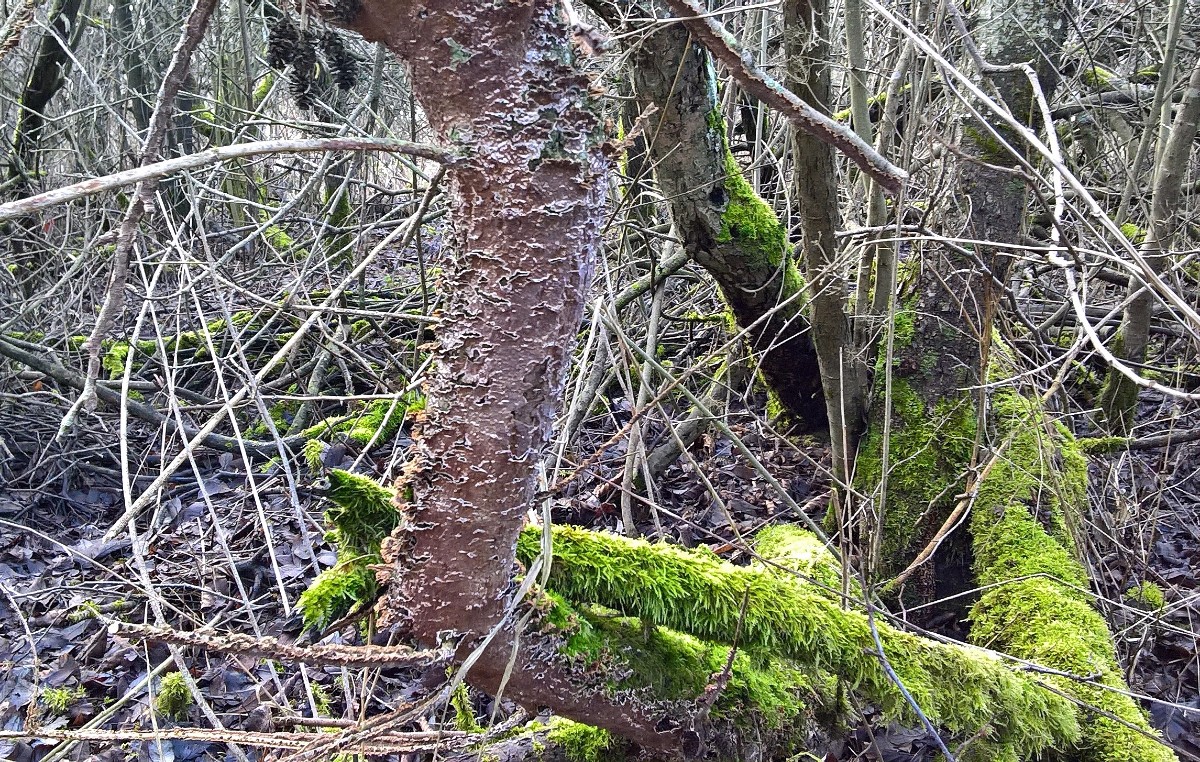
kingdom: Fungi
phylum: Basidiomycota
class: Agaricomycetes
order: Hymenochaetales
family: Hymenochaetaceae
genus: Hydnoporia
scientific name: Hydnoporia tabacina
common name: tobaksbrun ruslædersvamp
